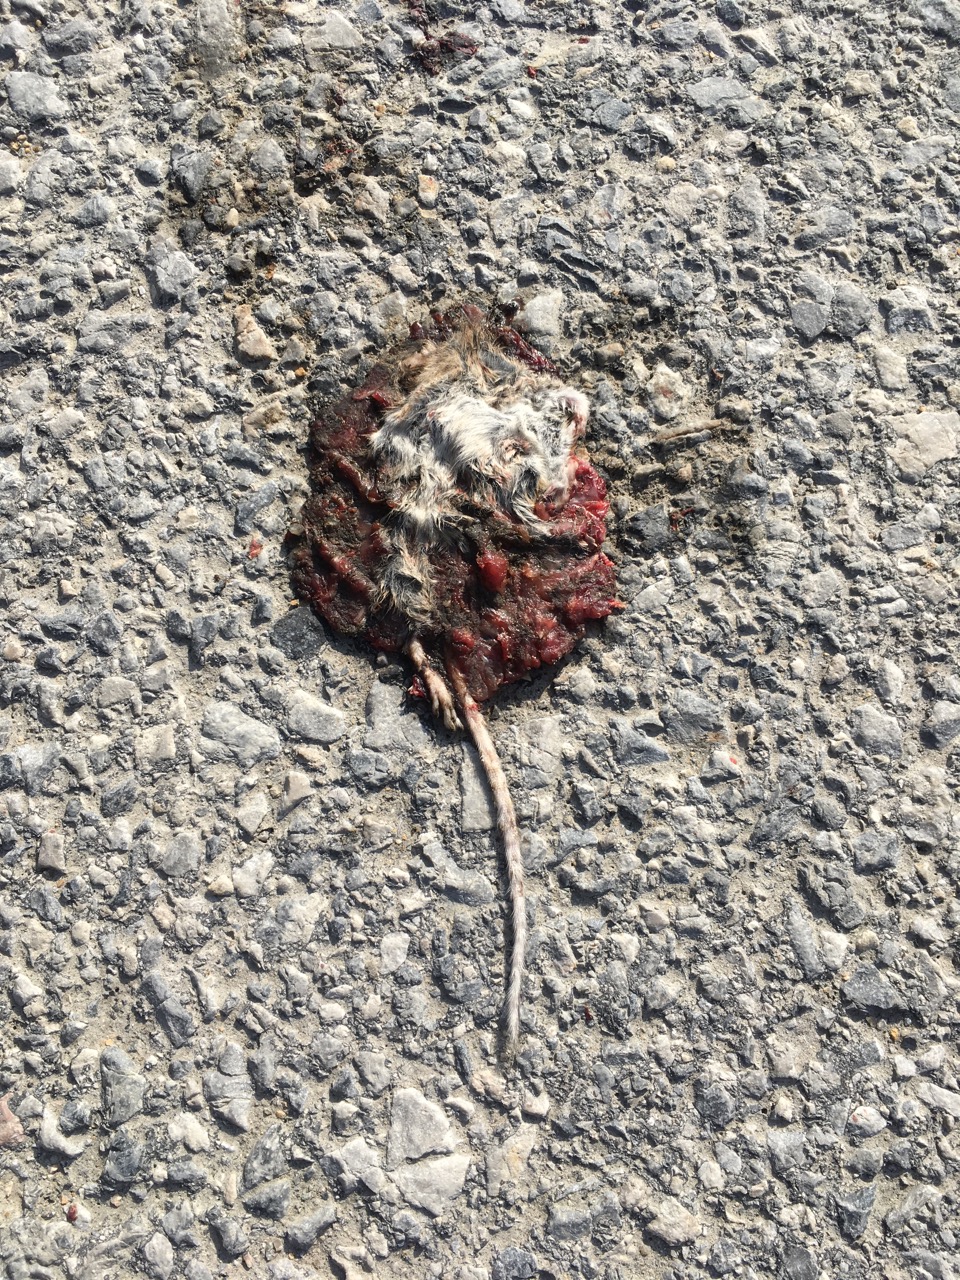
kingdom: Animalia
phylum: Chordata
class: Mammalia
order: Rodentia
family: Muridae
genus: Apodemus
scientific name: Apodemus
